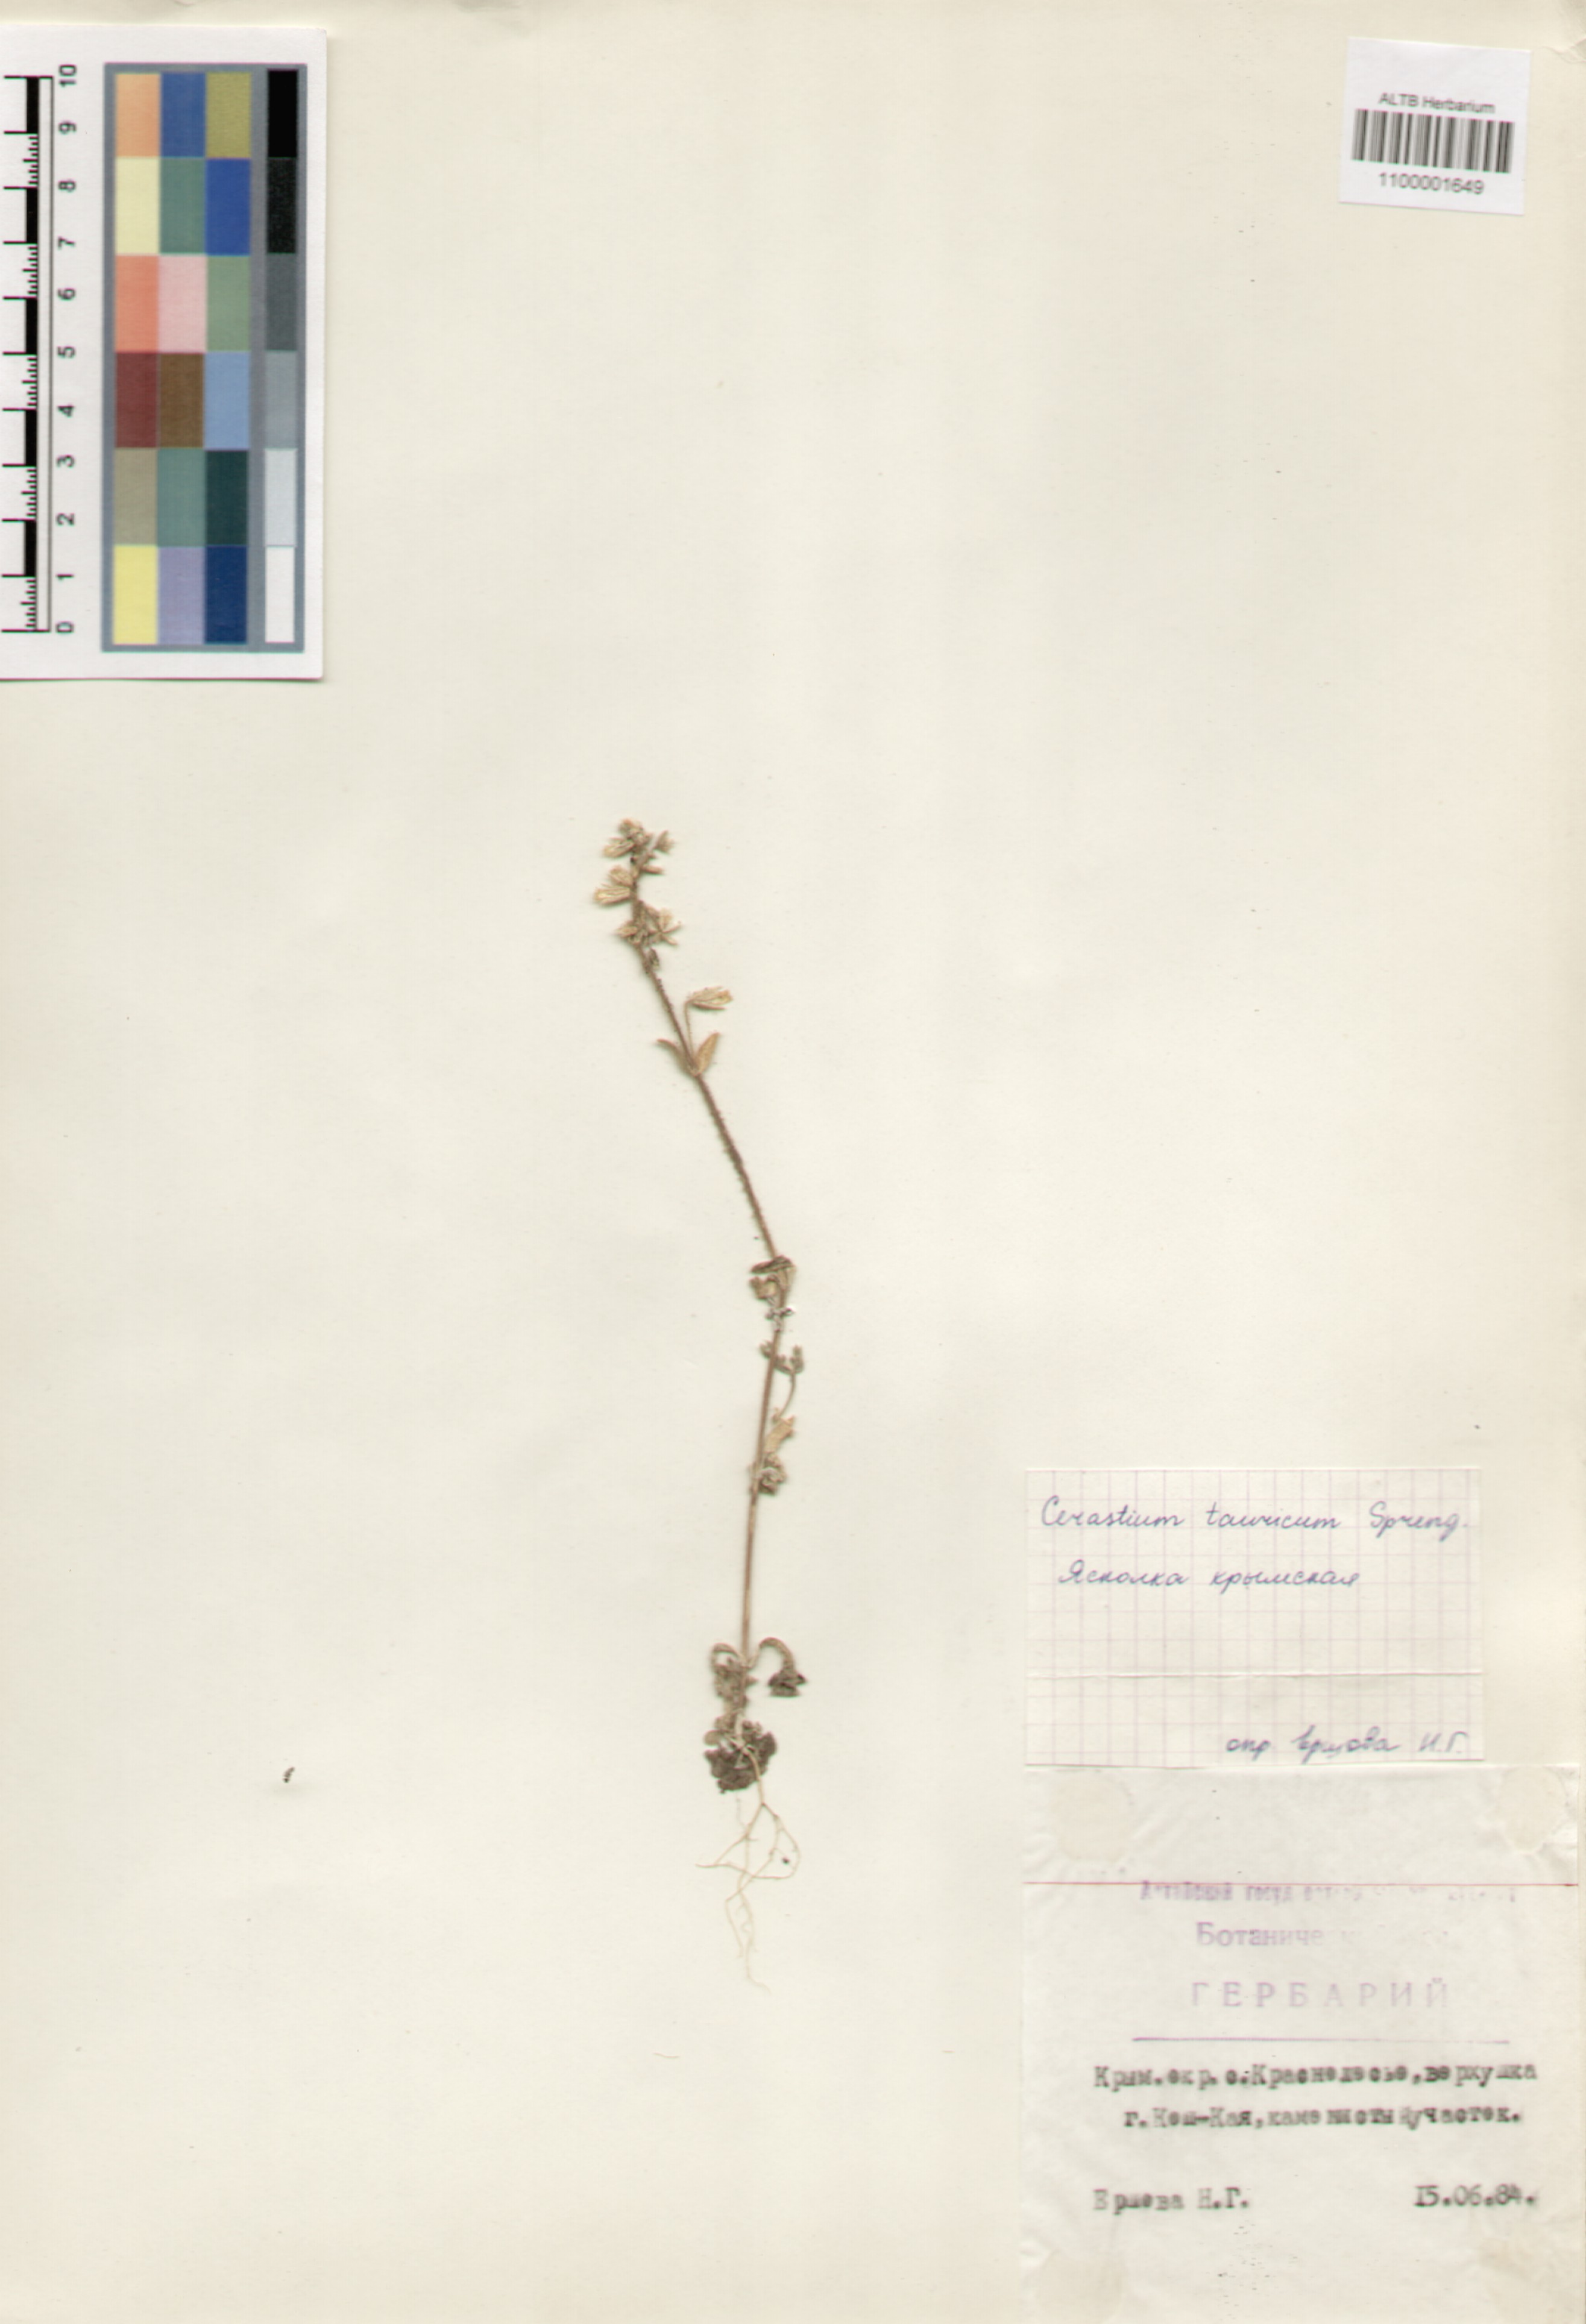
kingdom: Plantae
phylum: Tracheophyta
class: Magnoliopsida
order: Caryophyllales
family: Caryophyllaceae
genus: Cerastium
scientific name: Cerastium brachypetalum
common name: Grey mouse-ear
